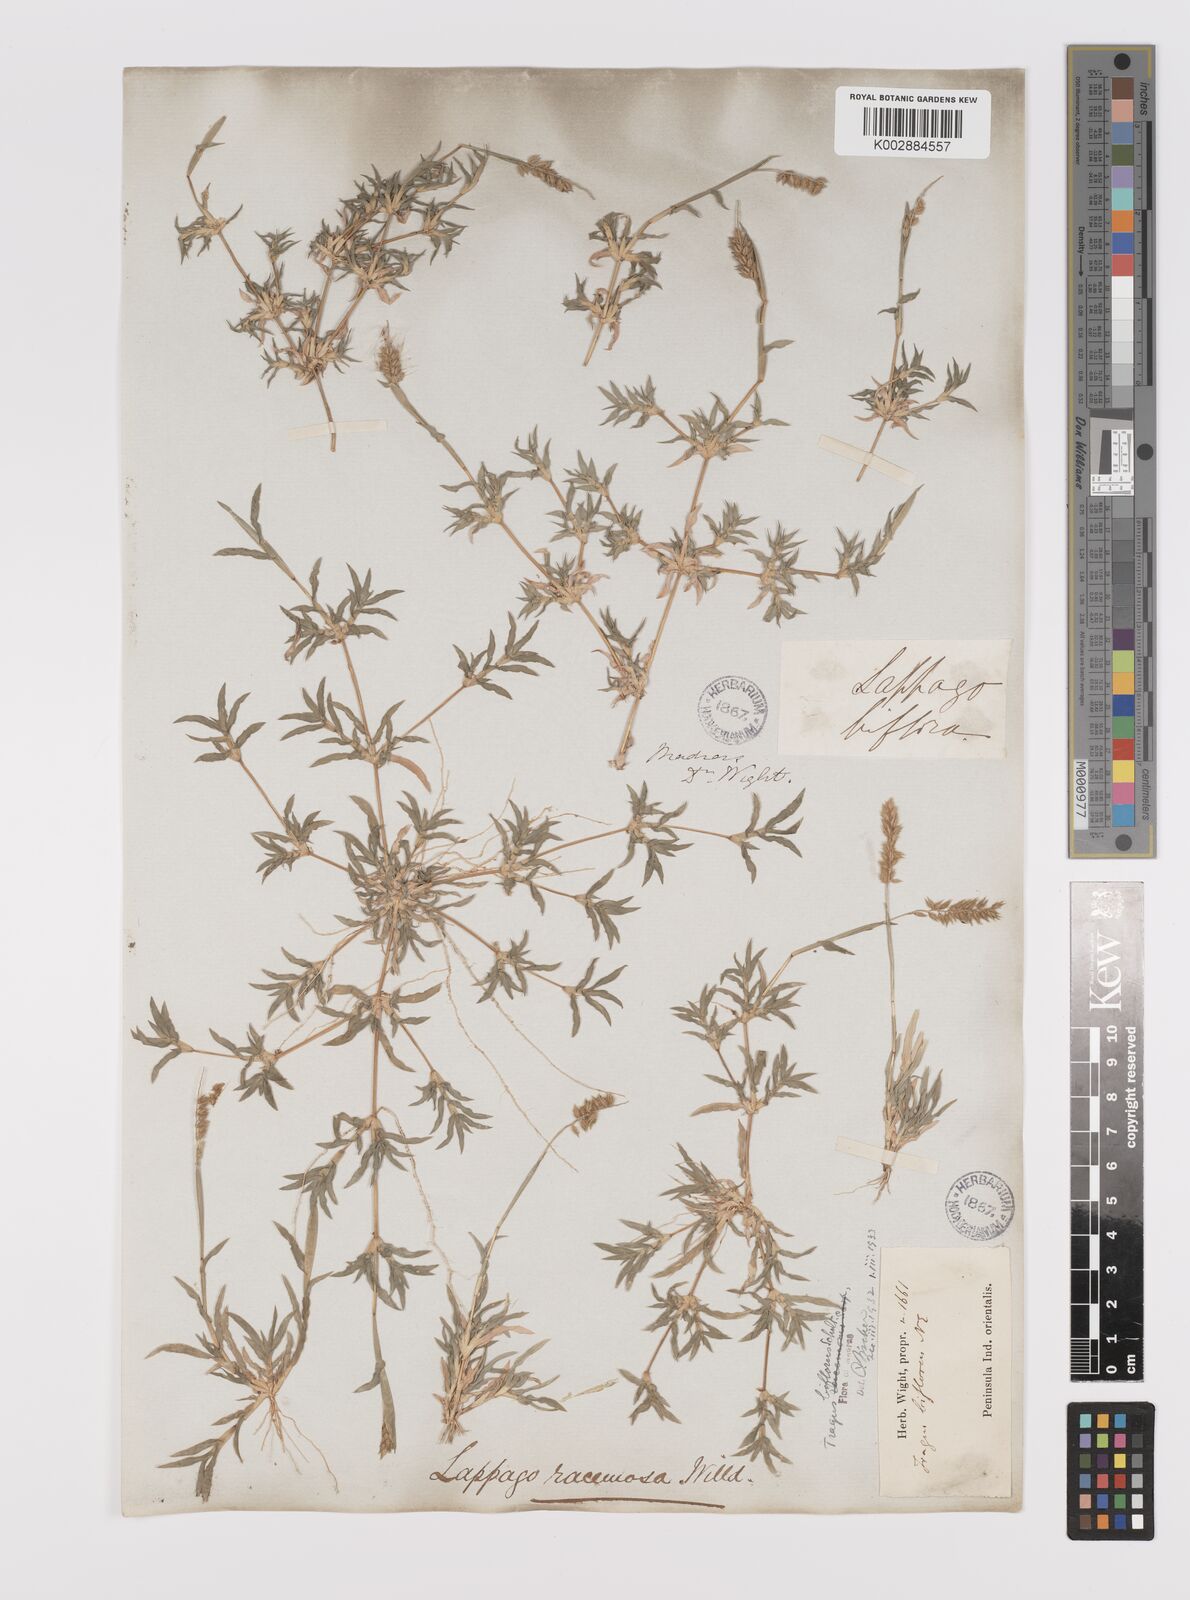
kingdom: Plantae
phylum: Tracheophyta
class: Liliopsida
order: Poales
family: Poaceae
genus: Tragus
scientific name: Tragus mongolorum
